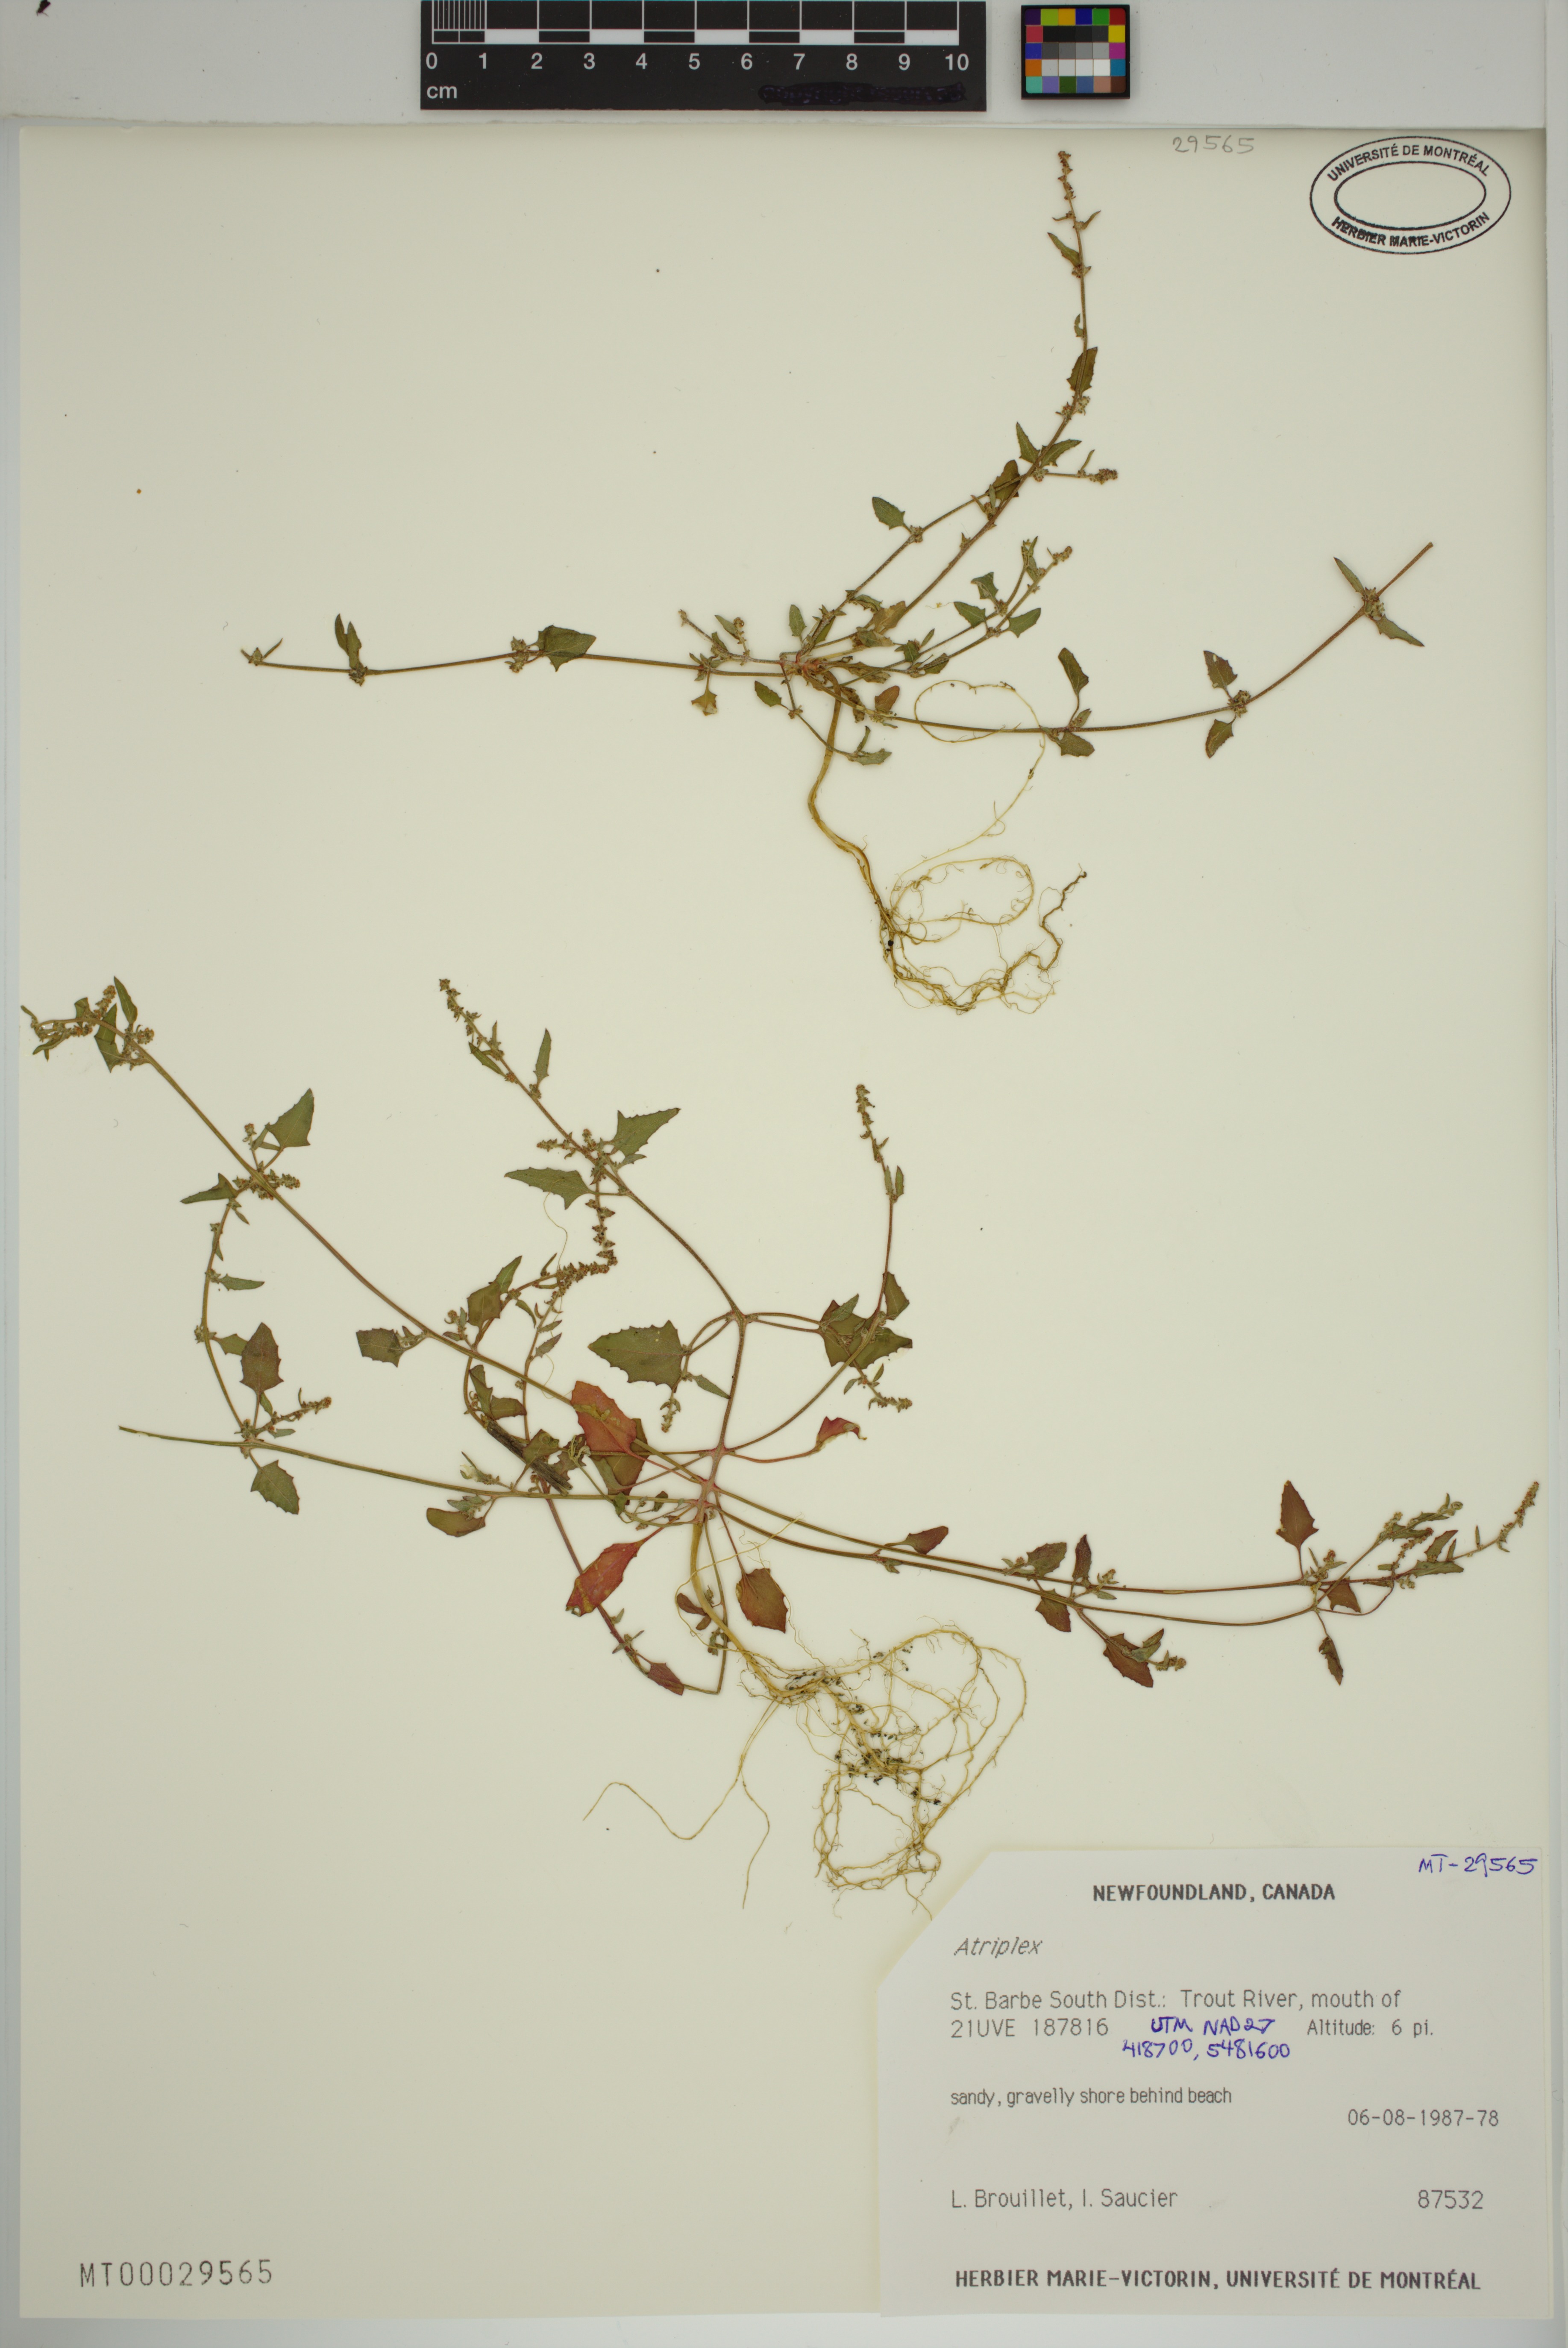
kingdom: Plantae
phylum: Tracheophyta
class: Magnoliopsida
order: Caryophyllales
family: Amaranthaceae
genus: Atriplex
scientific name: Atriplex
